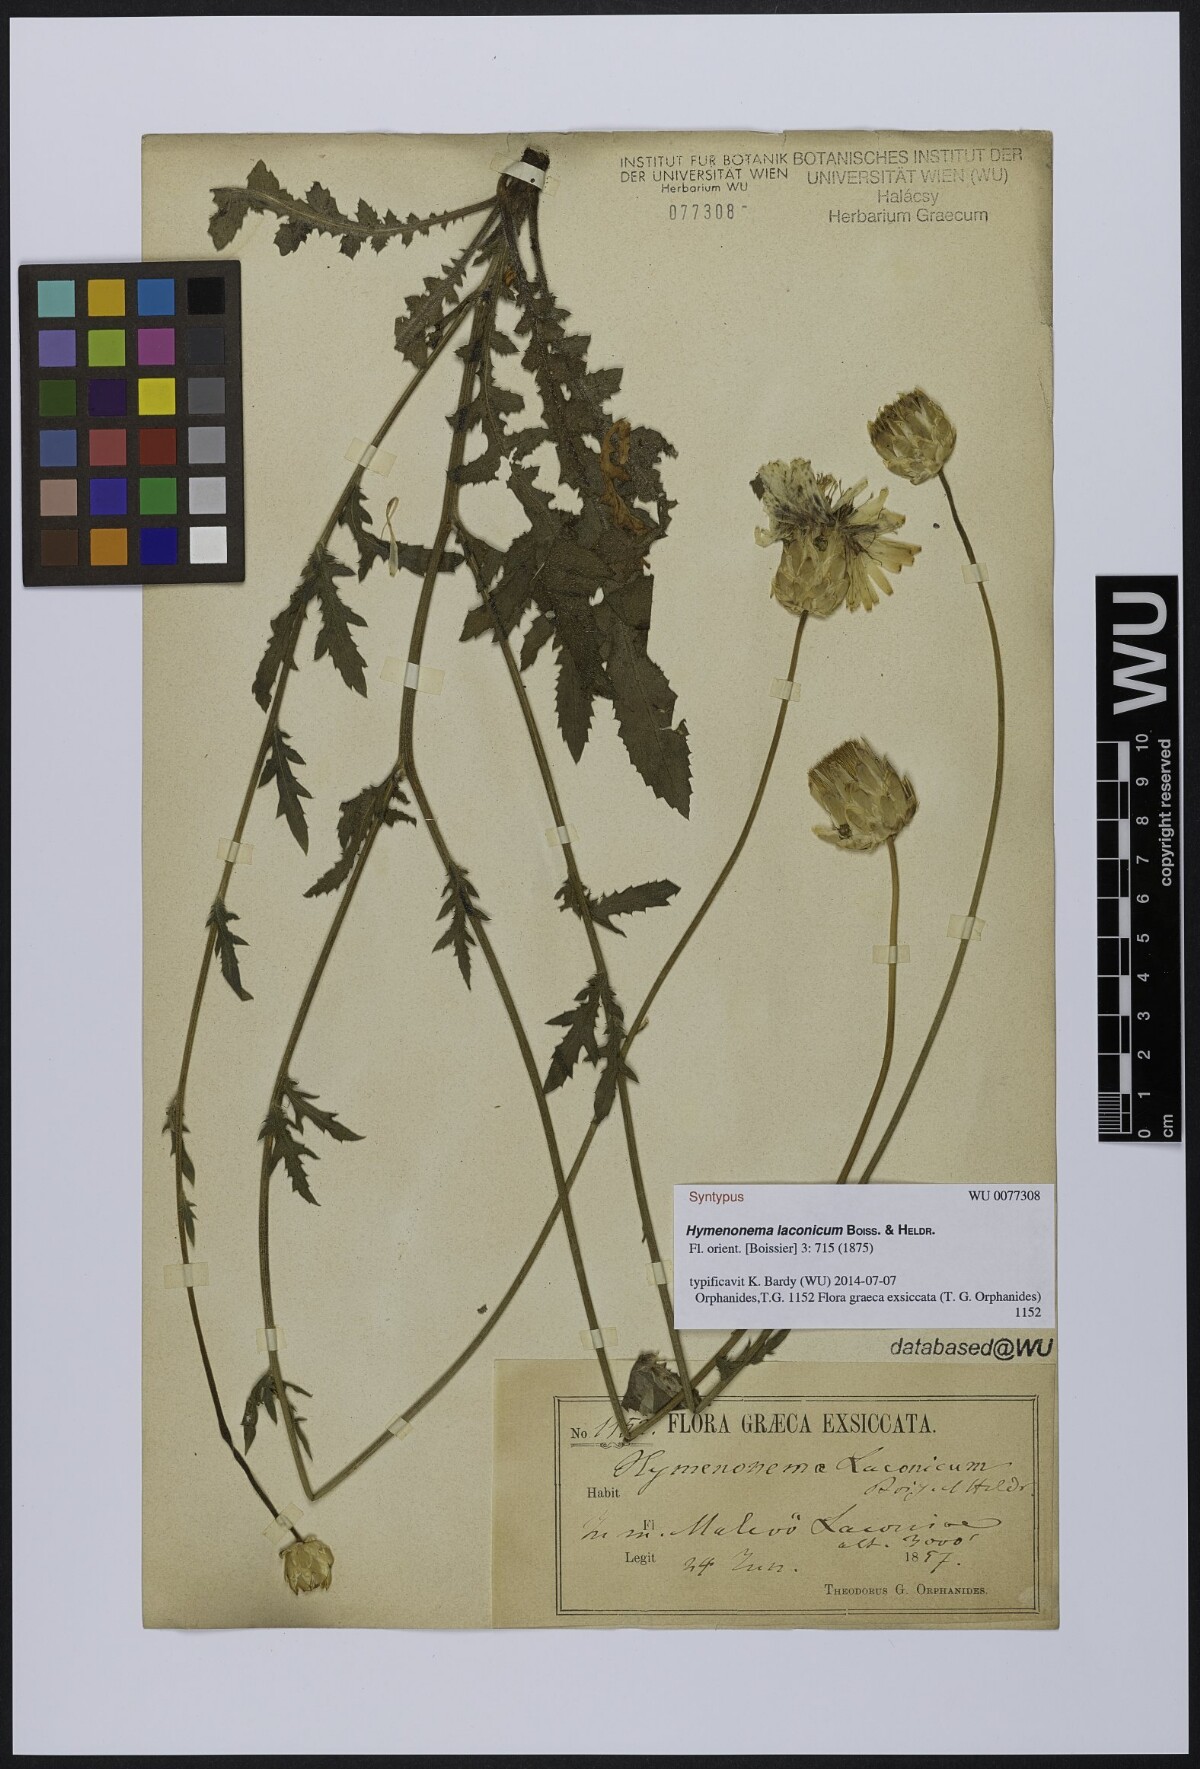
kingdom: Plantae
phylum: Tracheophyta
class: Magnoliopsida
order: Asterales
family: Asteraceae
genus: Hymenonema
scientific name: Hymenonema laconicum
